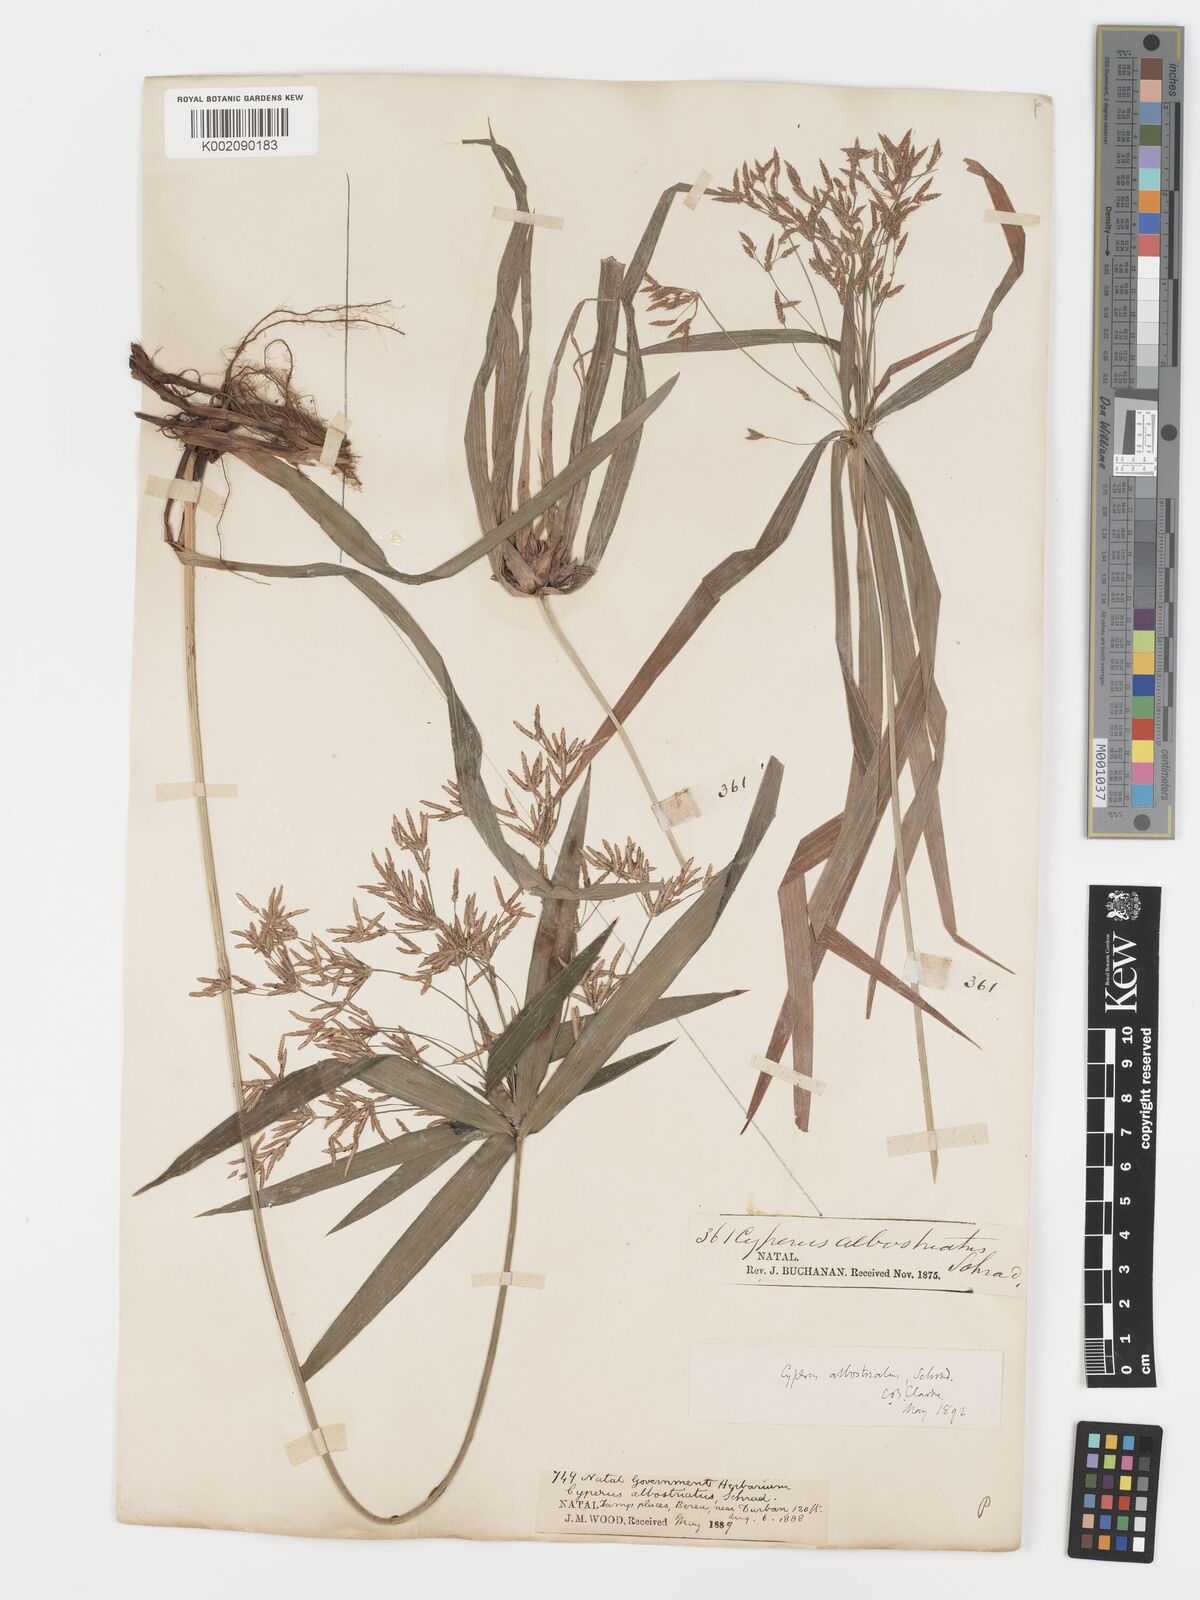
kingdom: Plantae
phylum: Tracheophyta
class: Liliopsida
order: Poales
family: Cyperaceae
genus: Cyperus
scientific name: Cyperus albostriatus
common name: Dwarf umbrella-grass
